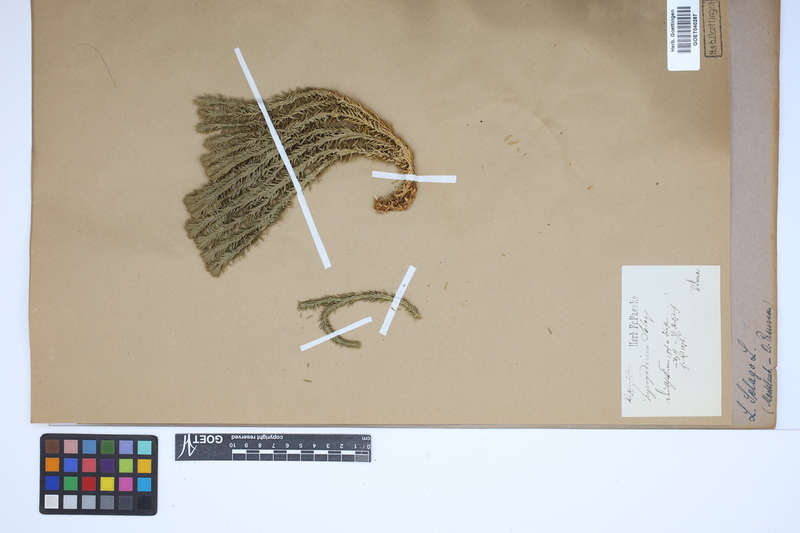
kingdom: Plantae
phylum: Tracheophyta
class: Lycopodiopsida
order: Lycopodiales
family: Lycopodiaceae
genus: Huperzia
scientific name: Huperzia selago
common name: Northern firmoss
